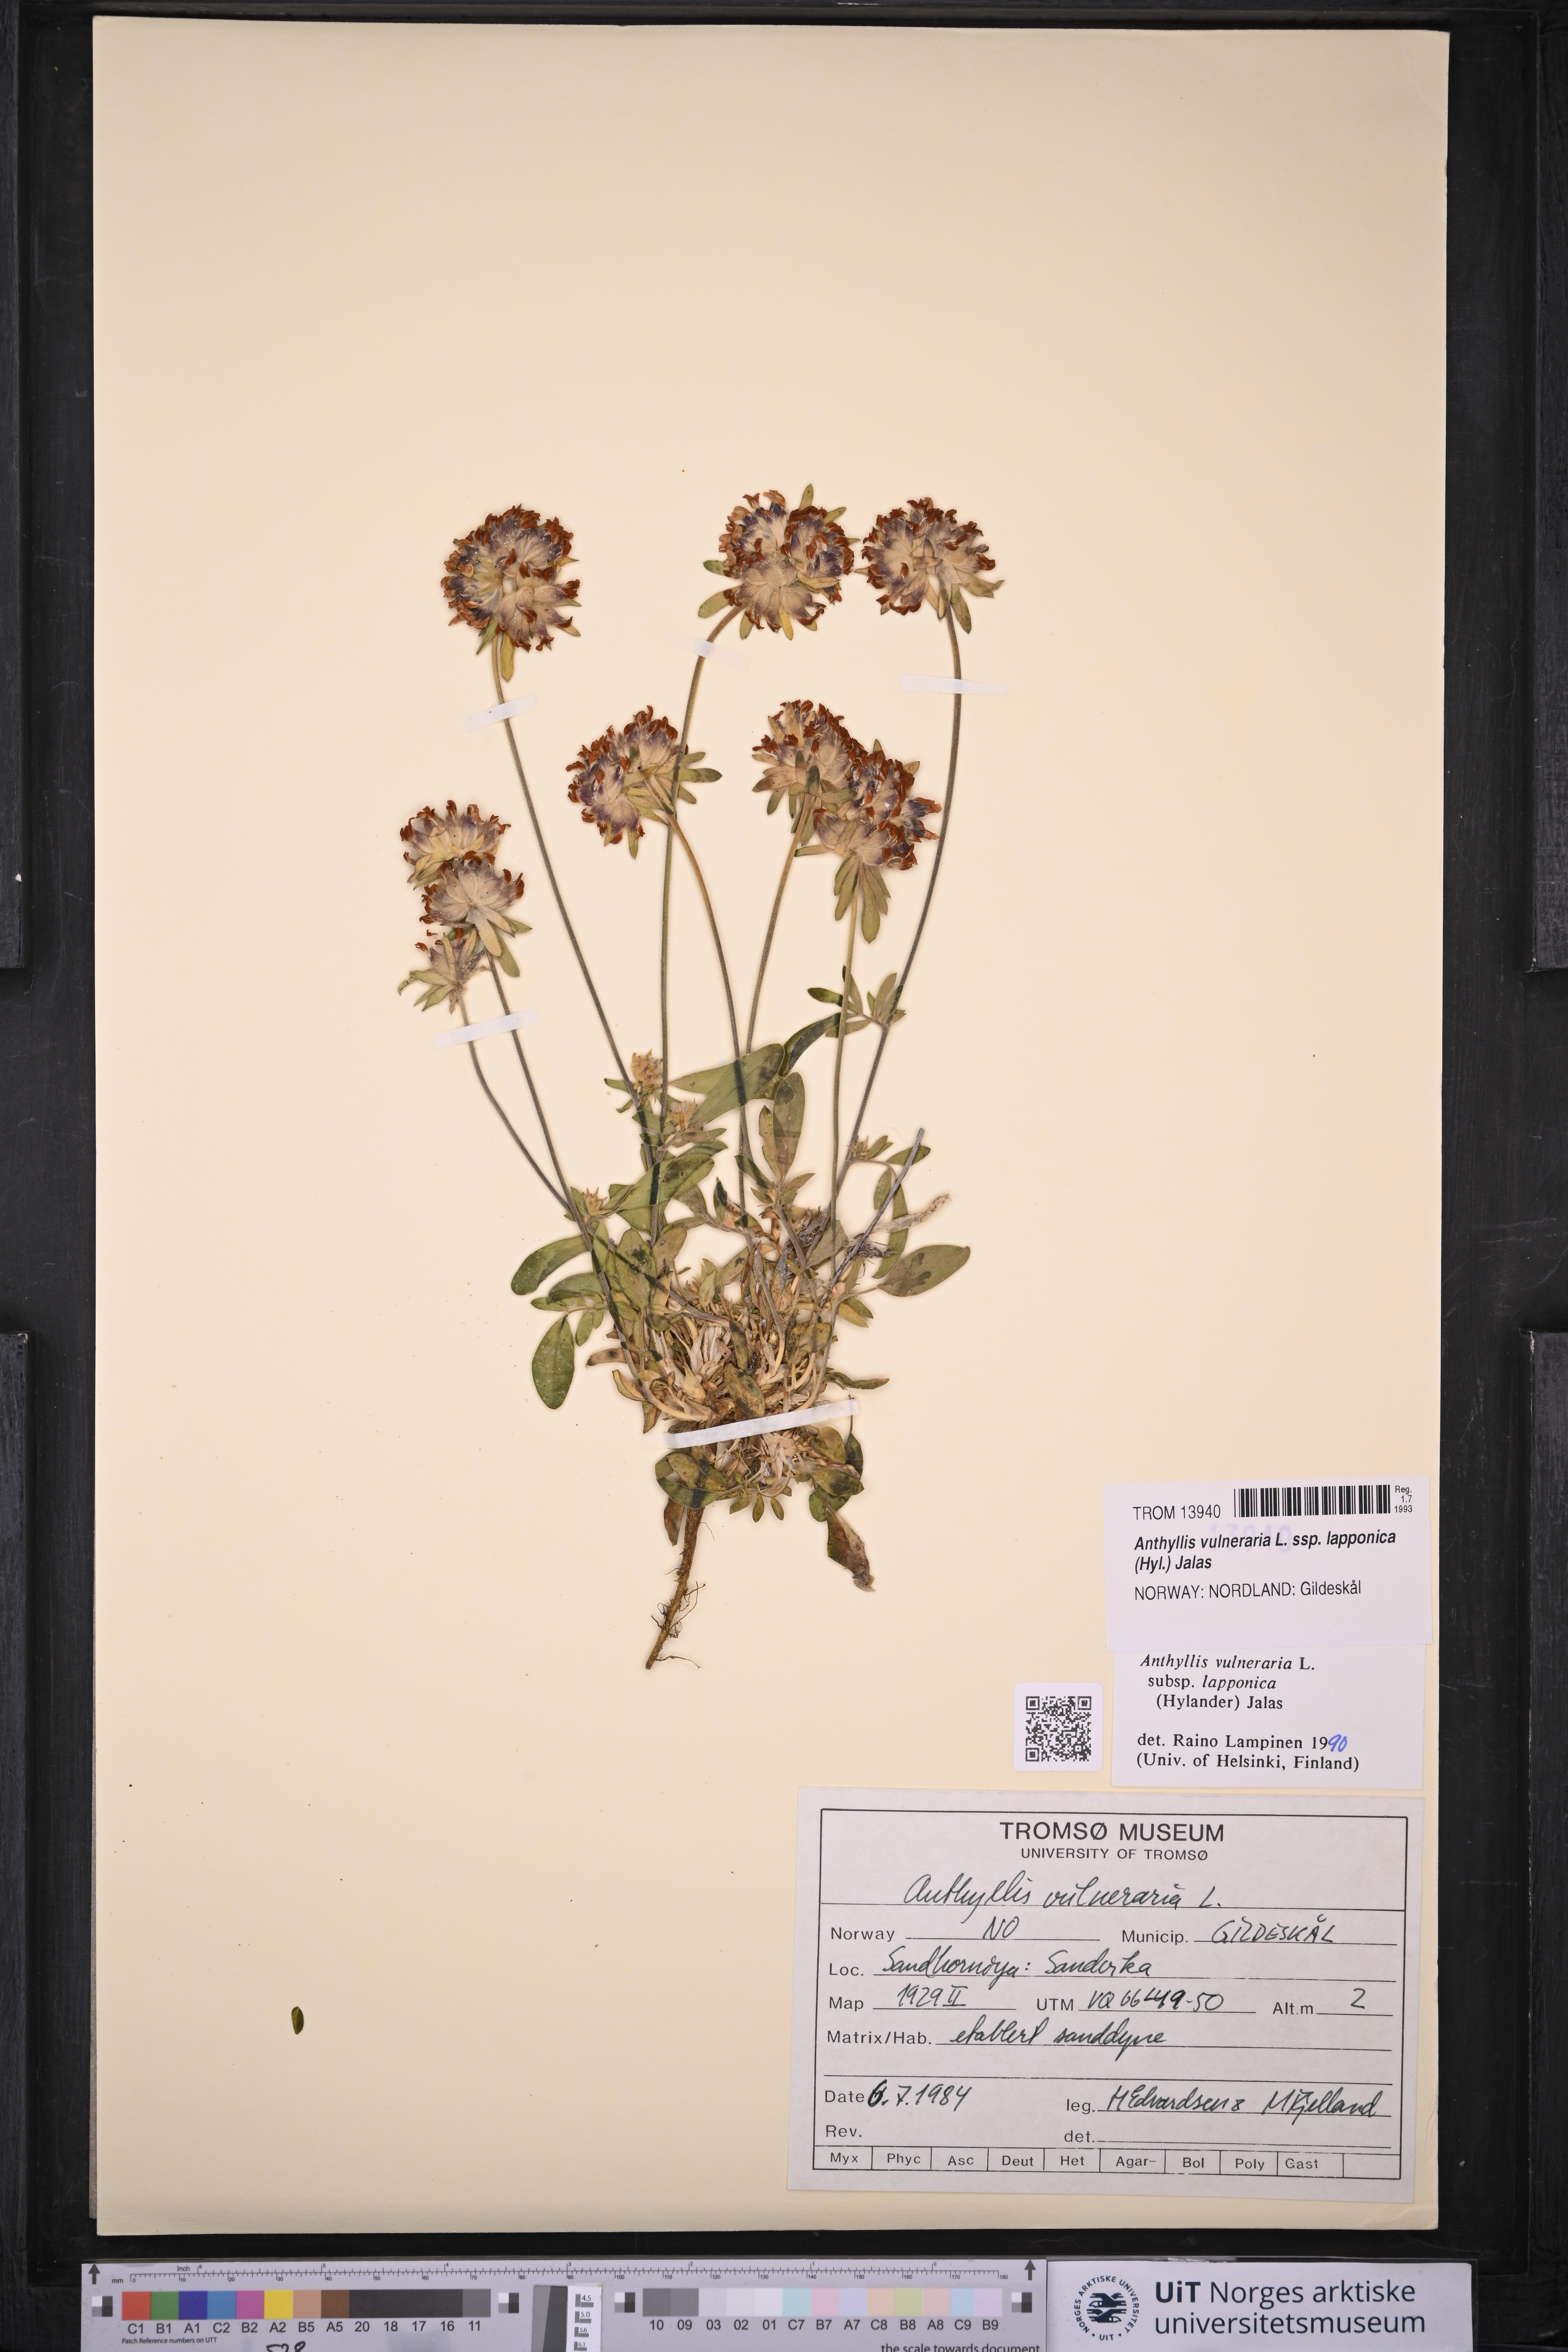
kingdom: Plantae
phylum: Tracheophyta
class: Magnoliopsida
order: Fabales
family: Fabaceae
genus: Anthyllis
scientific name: Anthyllis vulneraria
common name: Kidney vetch
